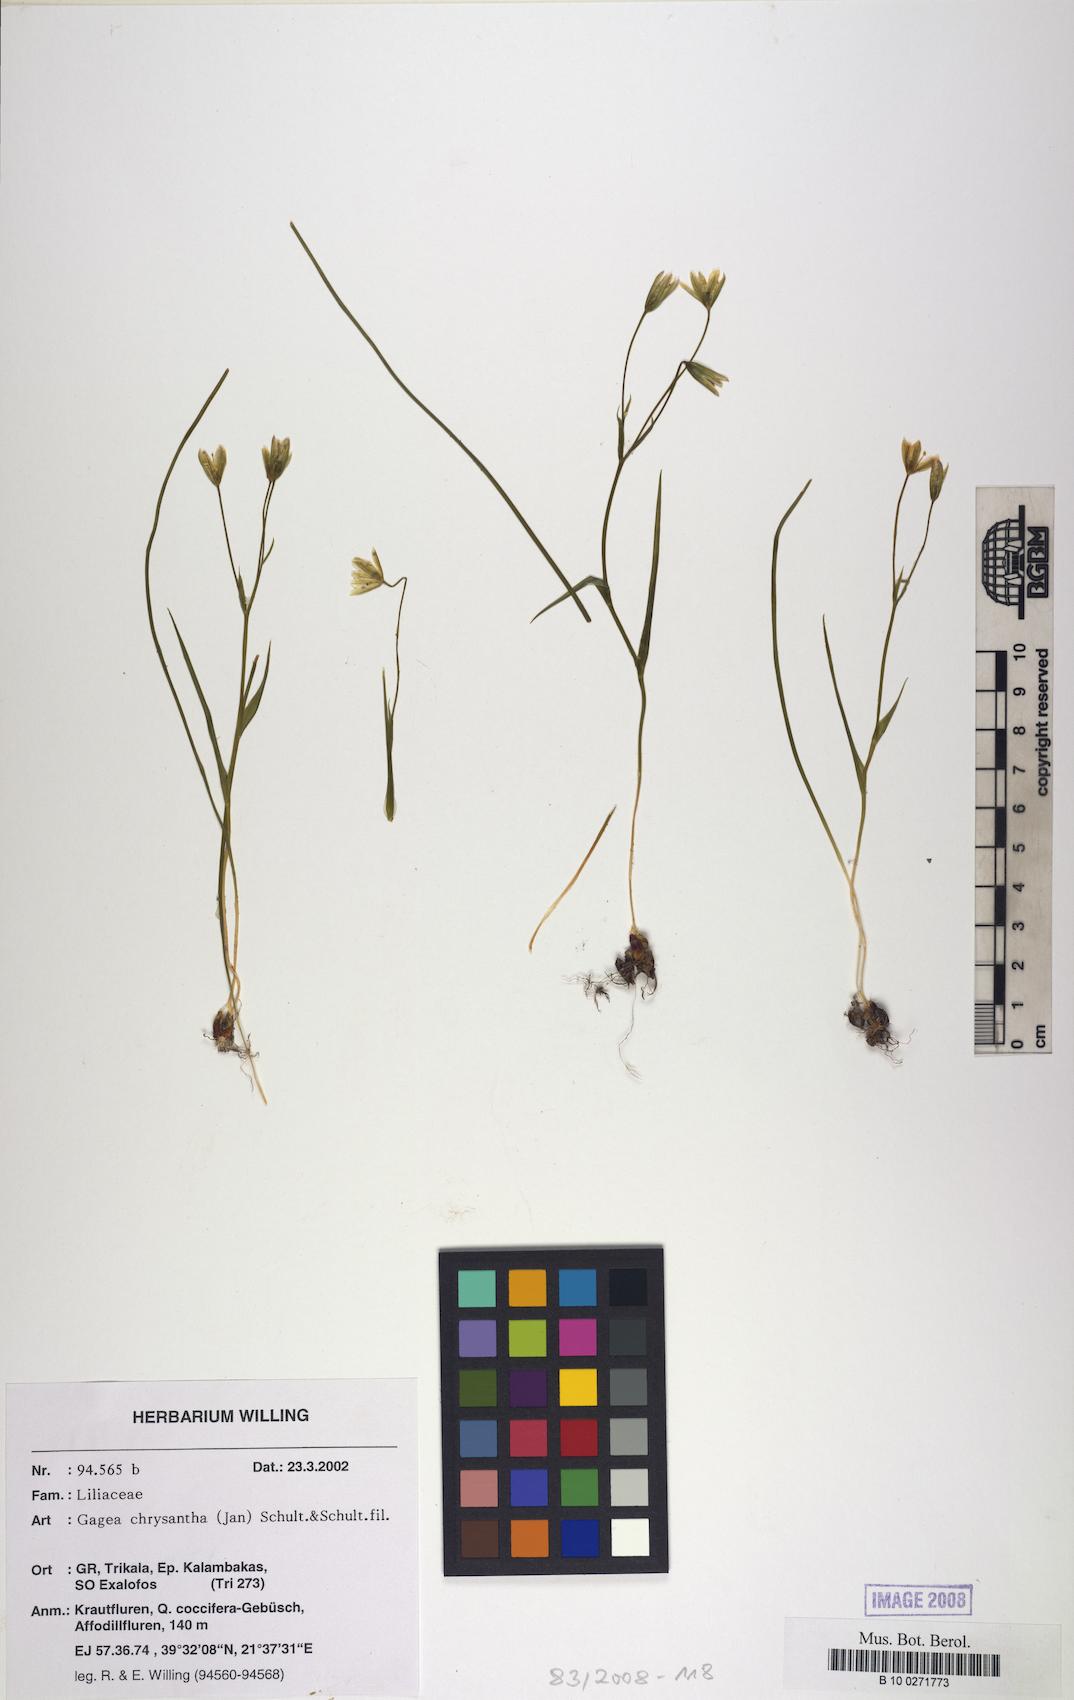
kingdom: Plantae
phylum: Tracheophyta
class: Liliopsida
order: Liliales
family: Liliaceae
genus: Gagea
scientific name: Gagea chrysantha
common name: Golden gagea
